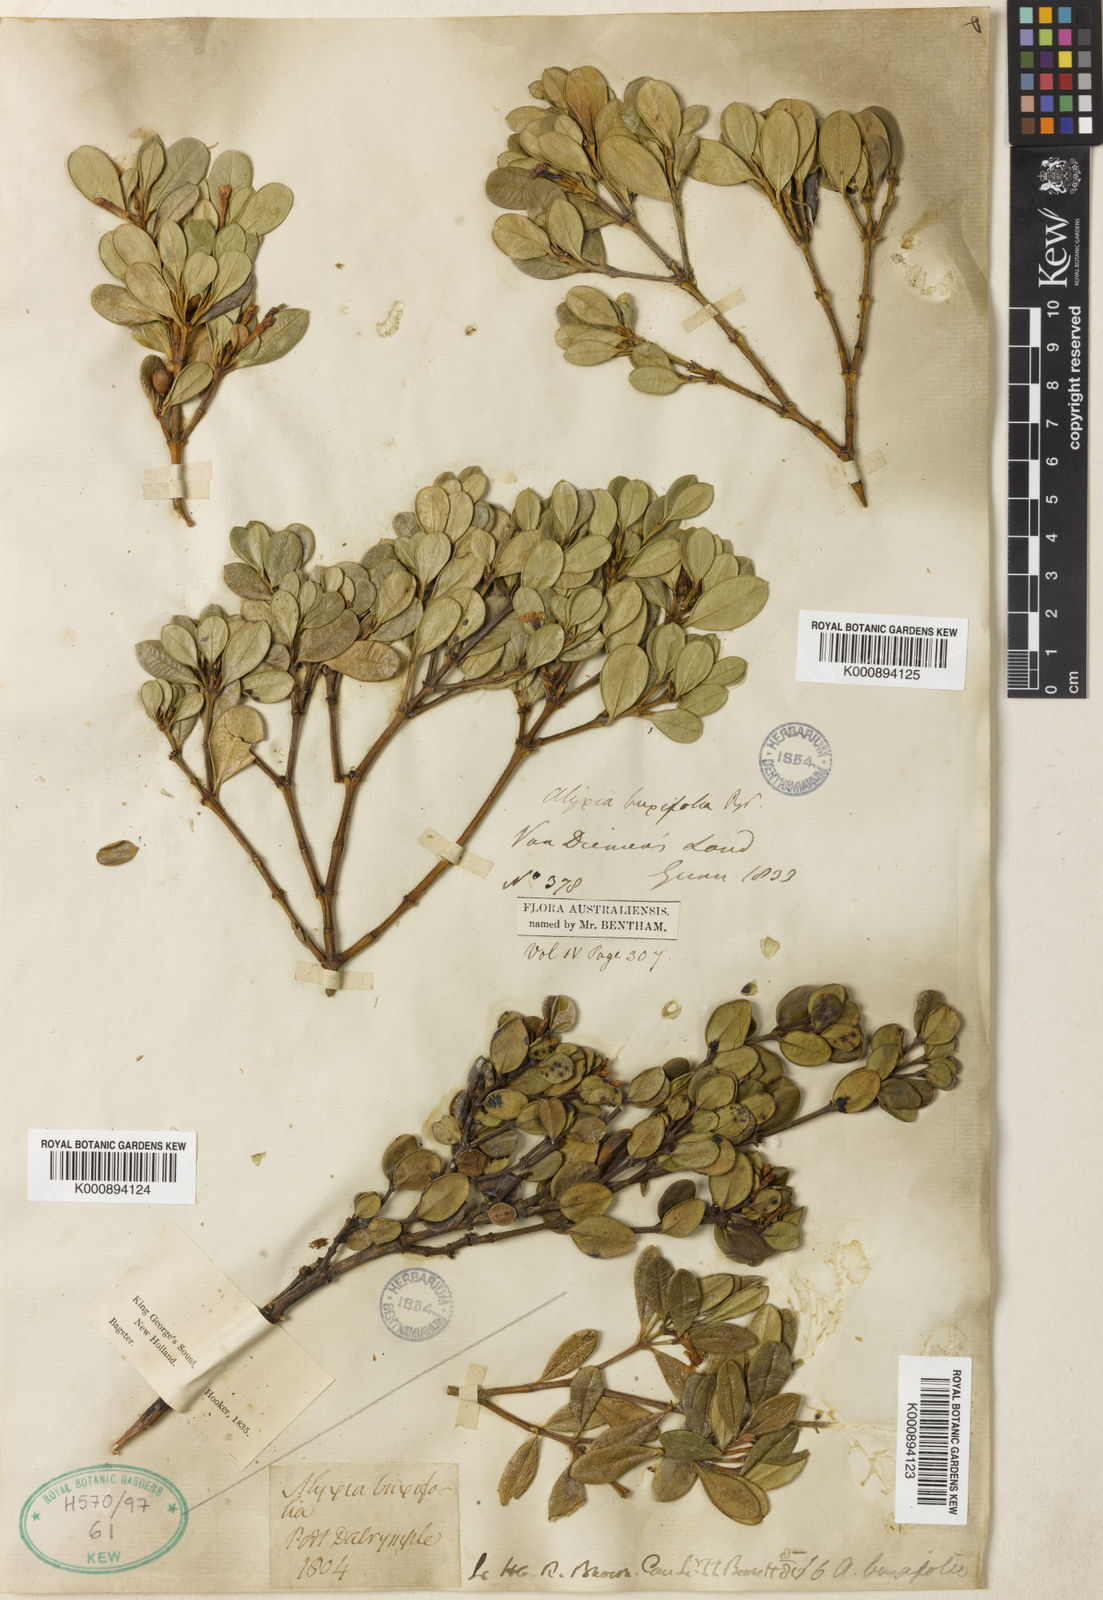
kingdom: Plantae
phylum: Tracheophyta
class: Magnoliopsida
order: Gentianales
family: Apocynaceae
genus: Alyxia
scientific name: Alyxia buxifolia
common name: Dysentery-bush
